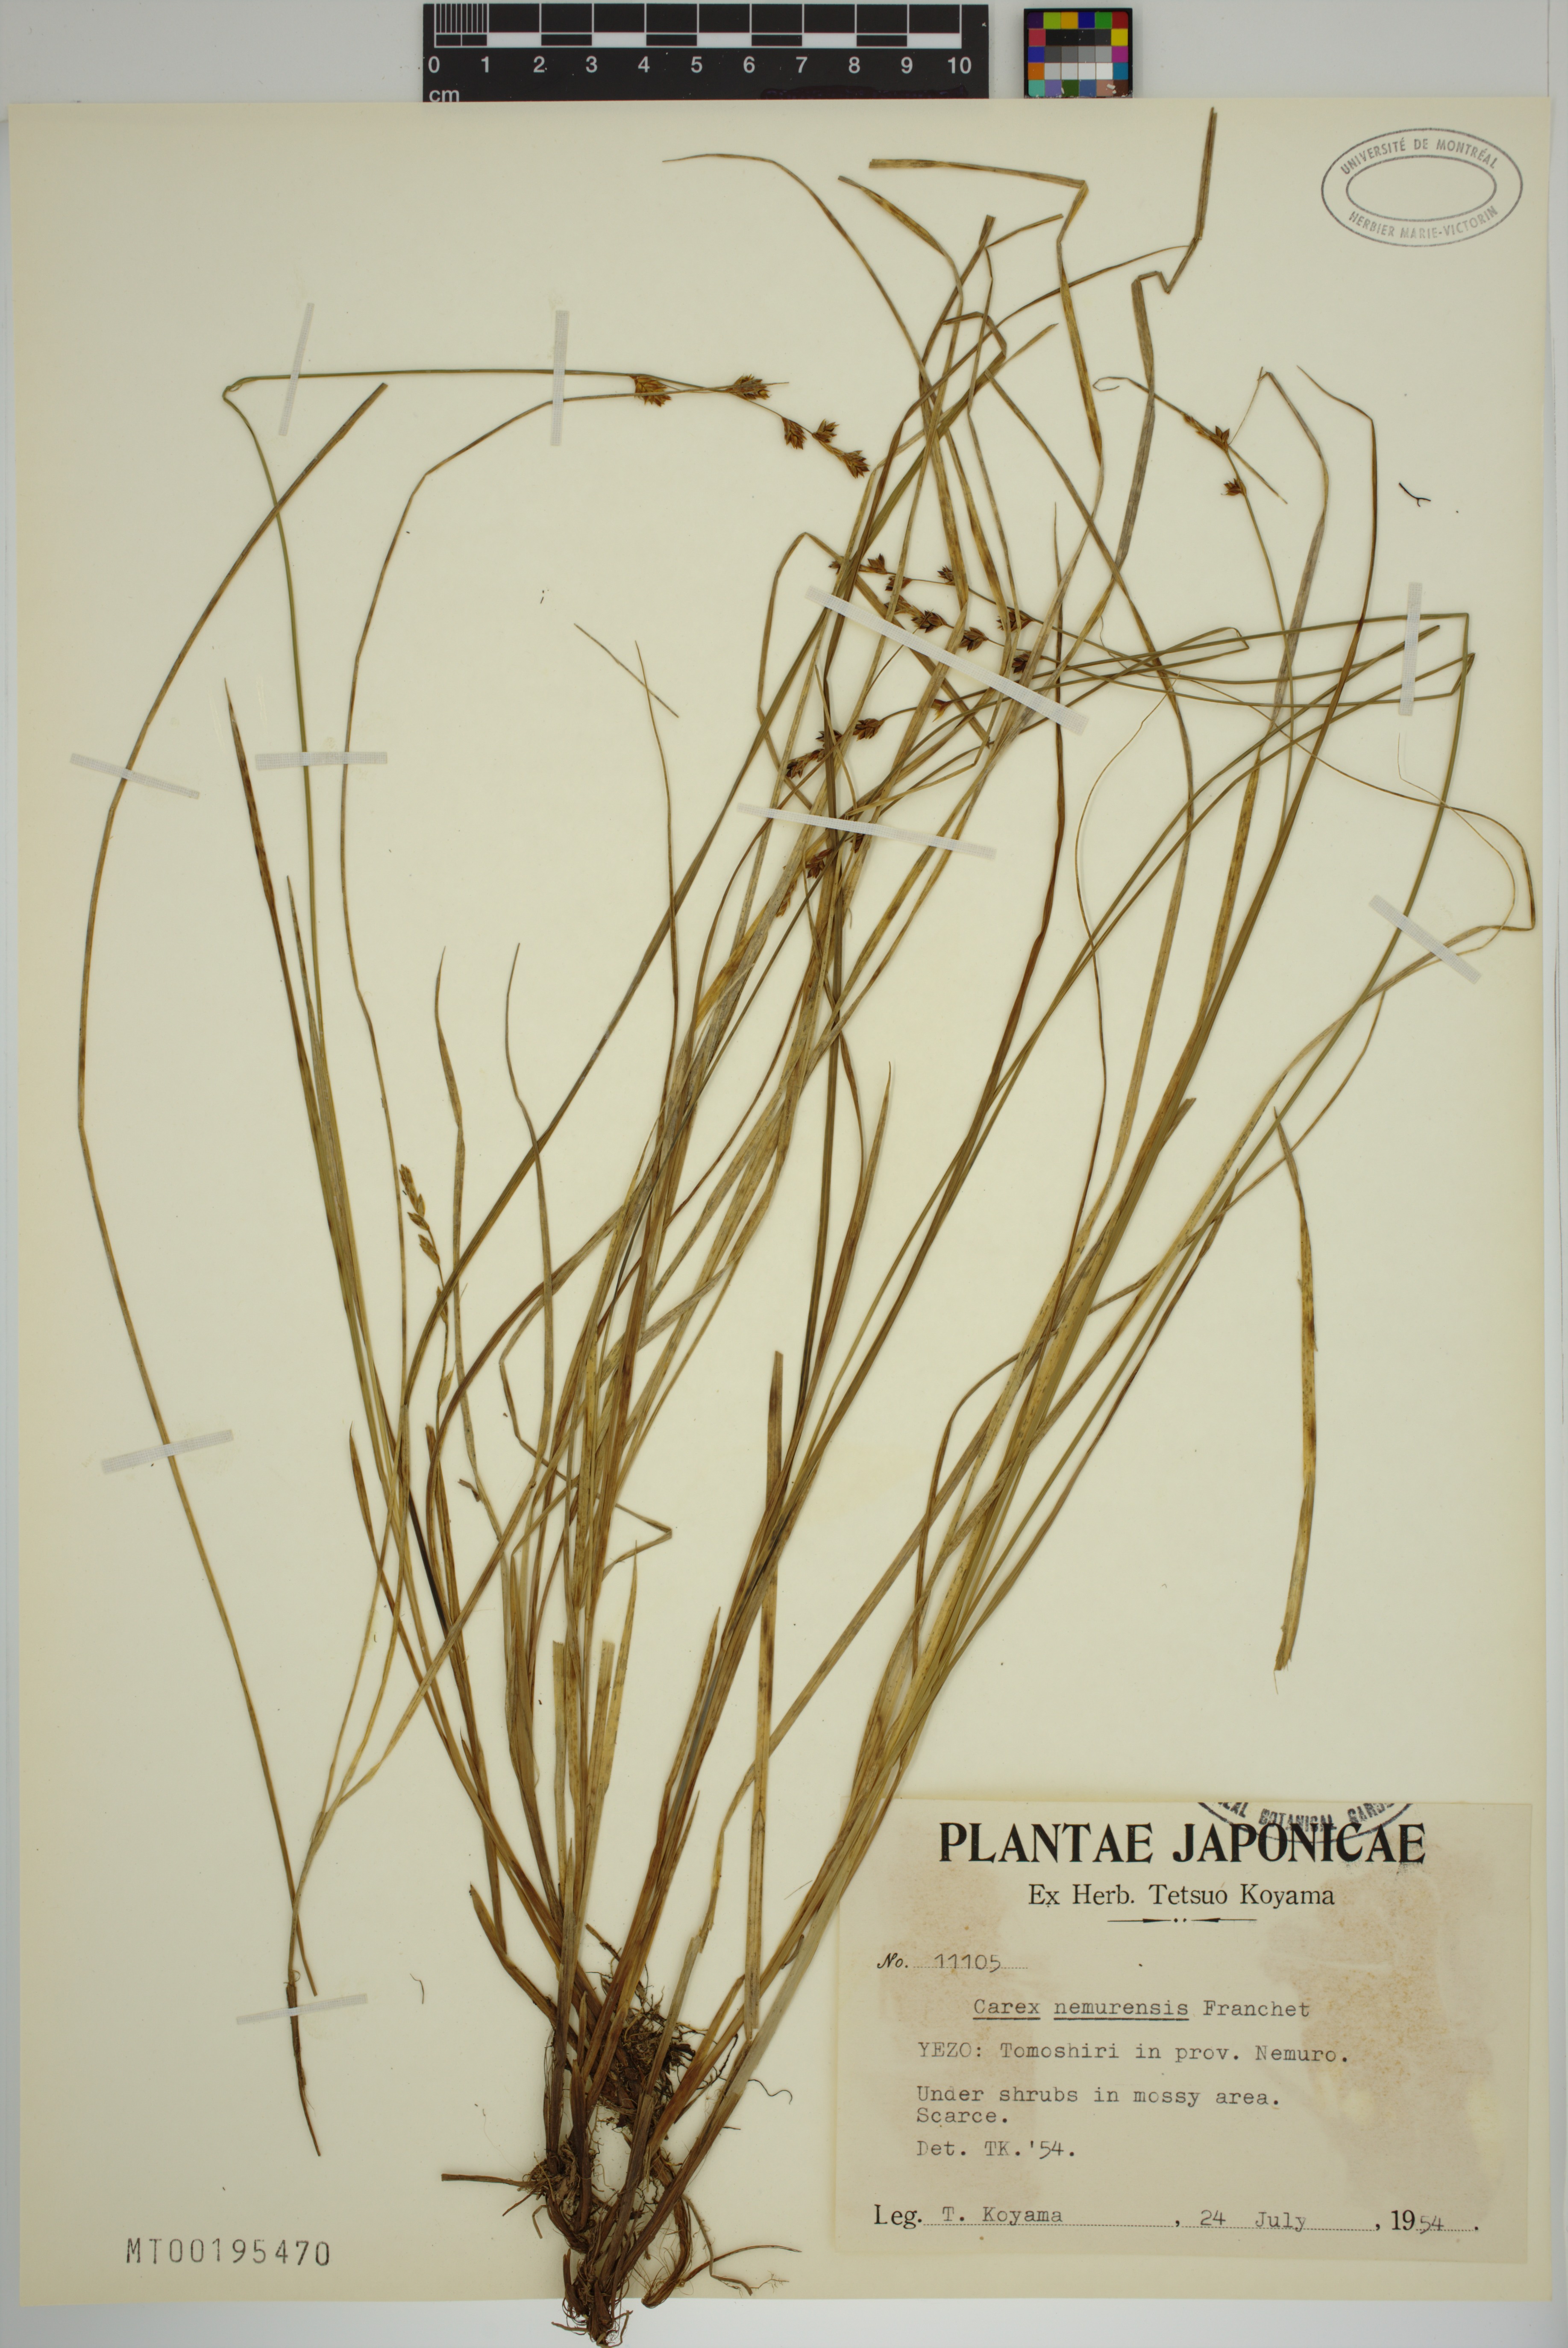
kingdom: Plantae
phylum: Tracheophyta
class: Liliopsida
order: Poales
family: Cyperaceae
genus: Carex
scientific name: Carex nemurensis
